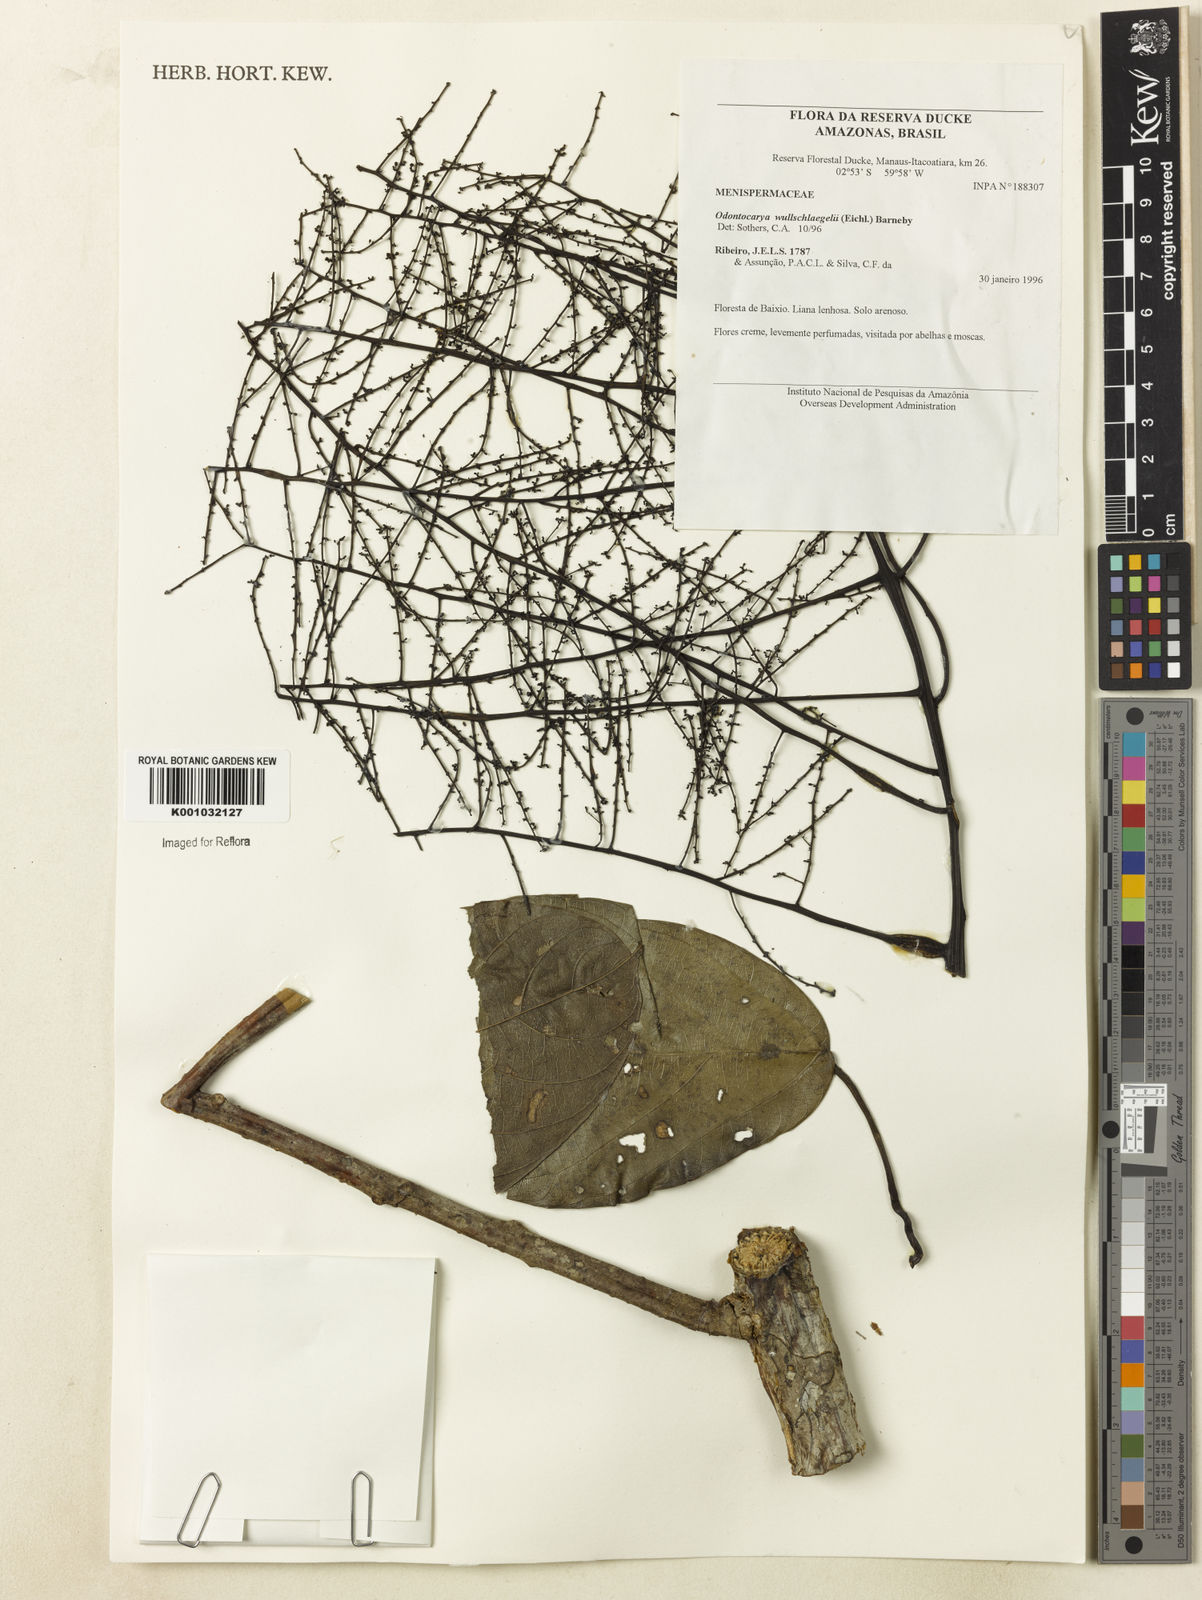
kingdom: Plantae
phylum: Tracheophyta
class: Magnoliopsida
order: Ranunculales
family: Menispermaceae
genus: Odontocarya
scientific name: Odontocarya wullschlaegelii
